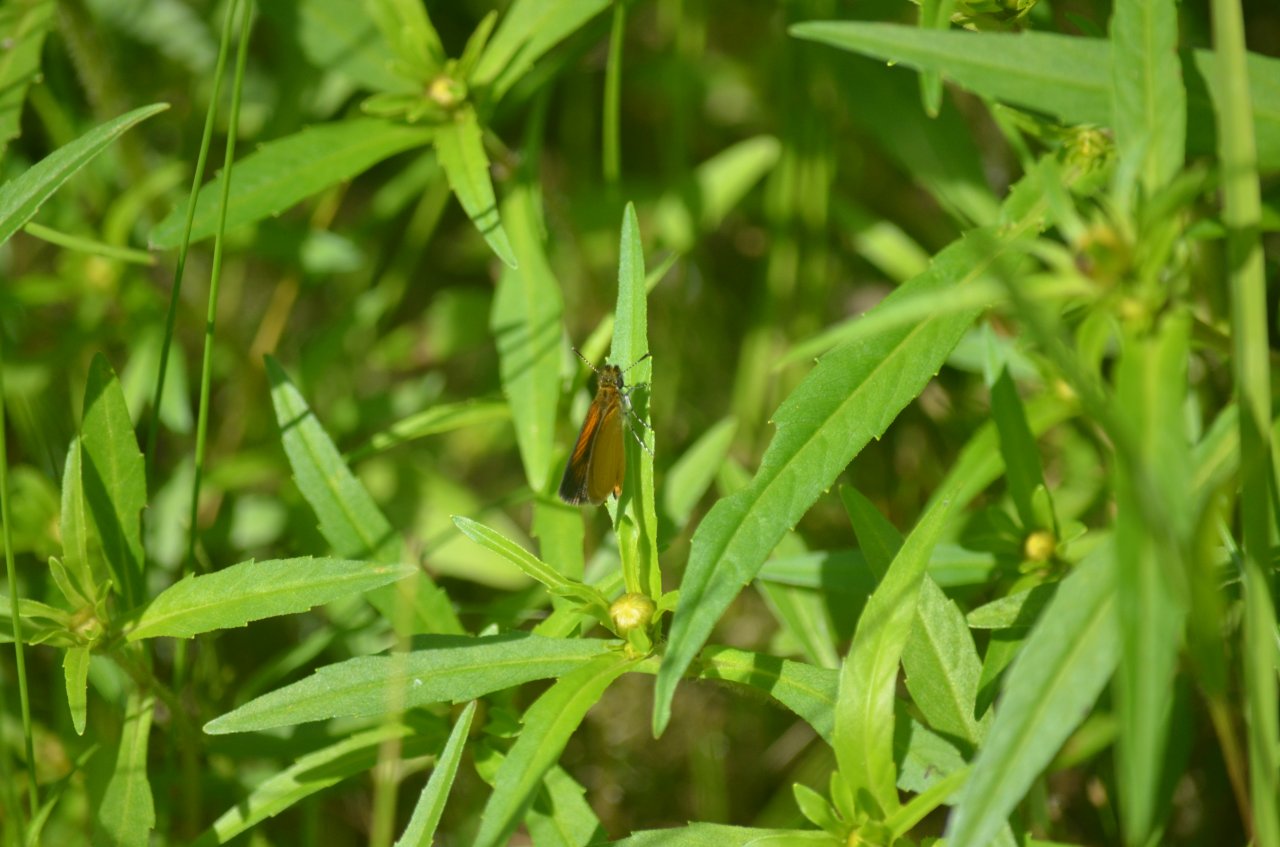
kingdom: Animalia
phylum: Arthropoda
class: Insecta
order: Lepidoptera
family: Hesperiidae
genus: Ancyloxypha
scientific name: Ancyloxypha numitor
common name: Least Skipper
